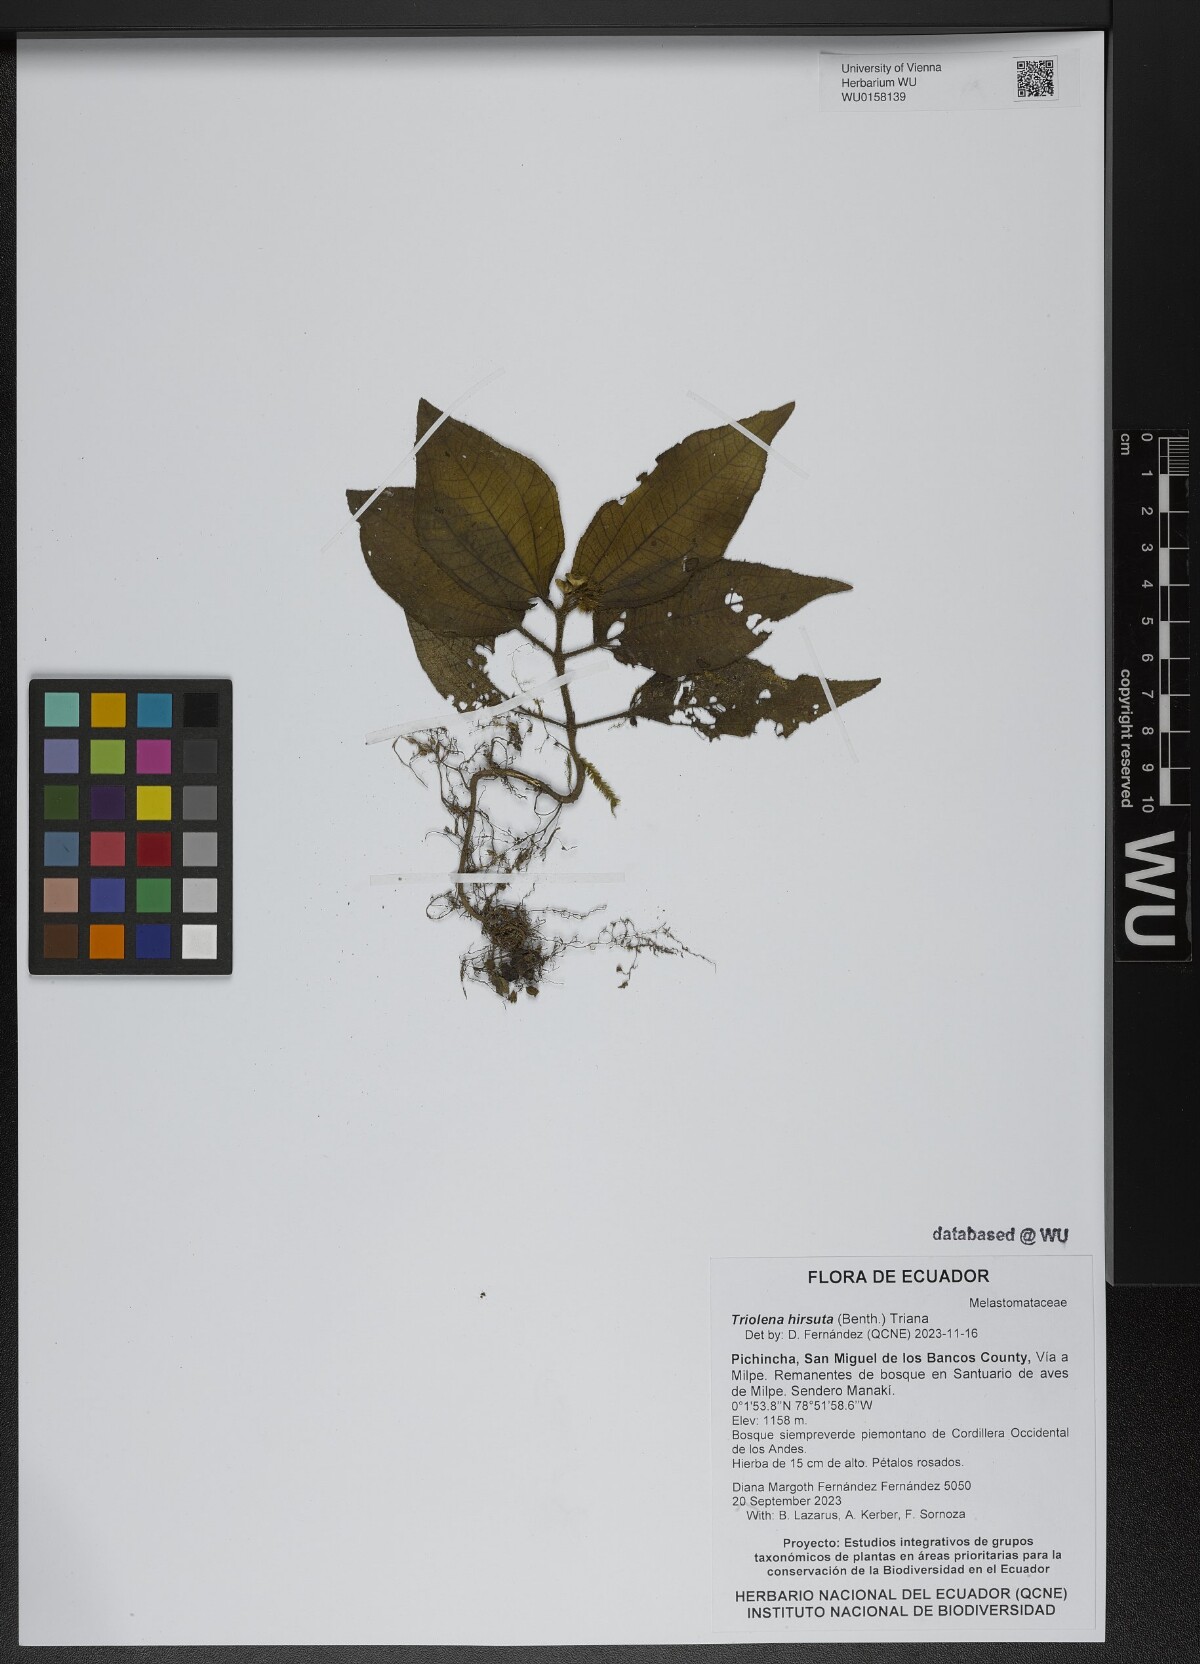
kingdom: Plantae
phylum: Tracheophyta
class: Magnoliopsida
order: Myrtales
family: Melastomataceae
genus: Triolena
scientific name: Triolena hirsuta
